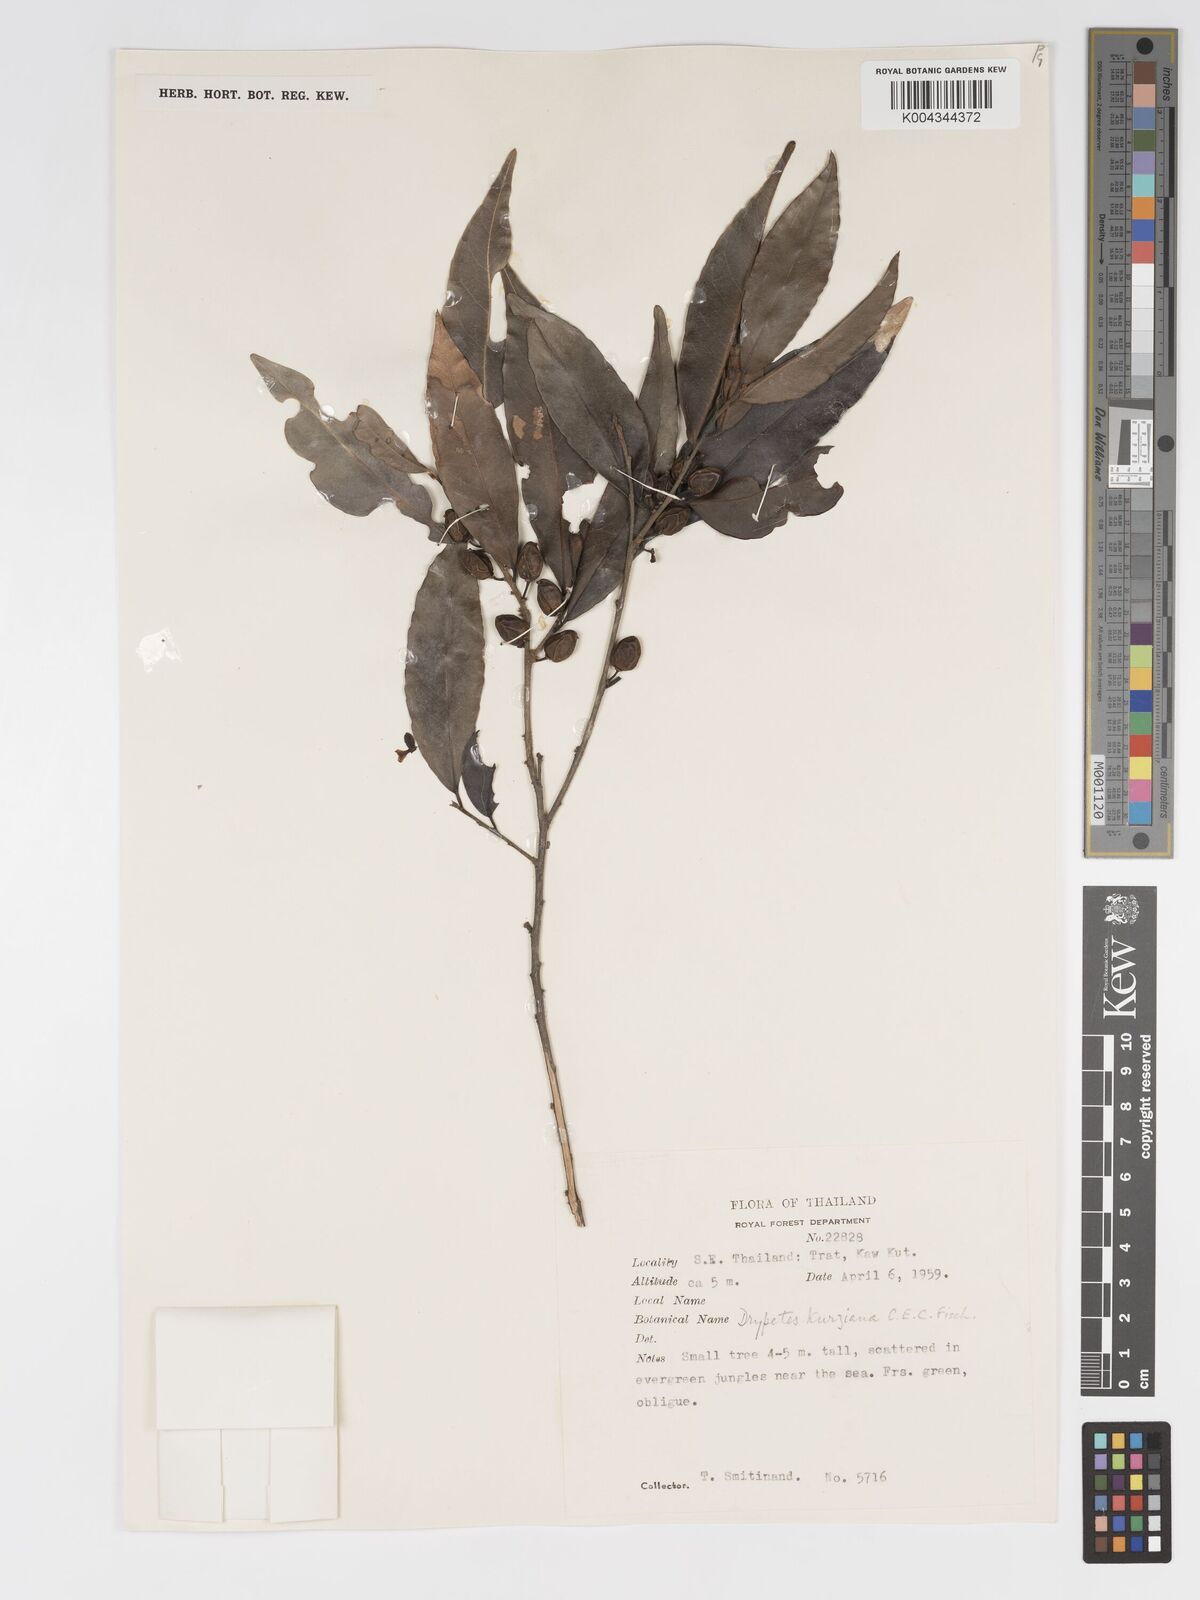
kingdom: Plantae
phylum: Tracheophyta
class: Magnoliopsida
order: Malpighiales
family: Putranjivaceae
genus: Drypetes
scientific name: Drypetes cambodica
